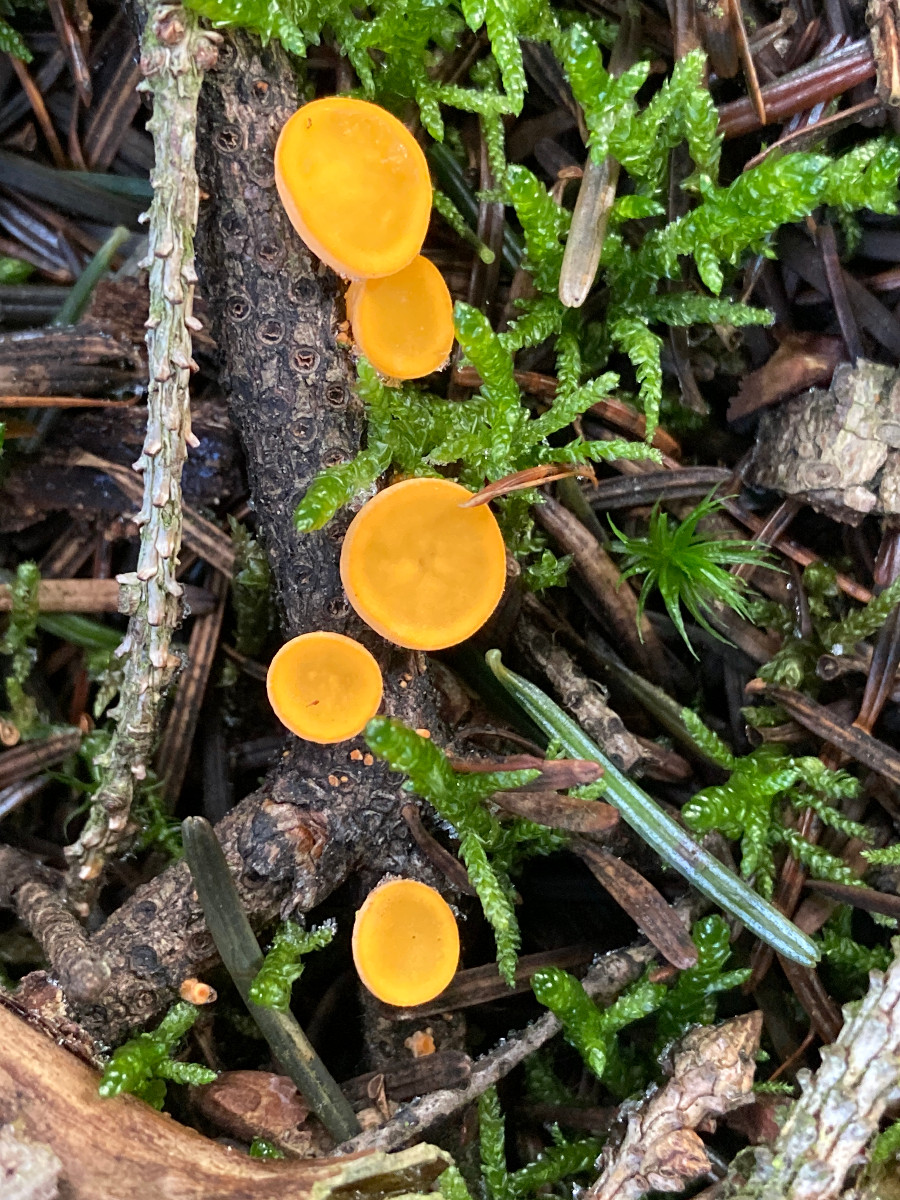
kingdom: Fungi
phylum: Ascomycota
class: Pezizomycetes
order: Pezizales
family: Sarcoscyphaceae
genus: Pithya
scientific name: Pithya vulgaris
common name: stor dukatbæger
